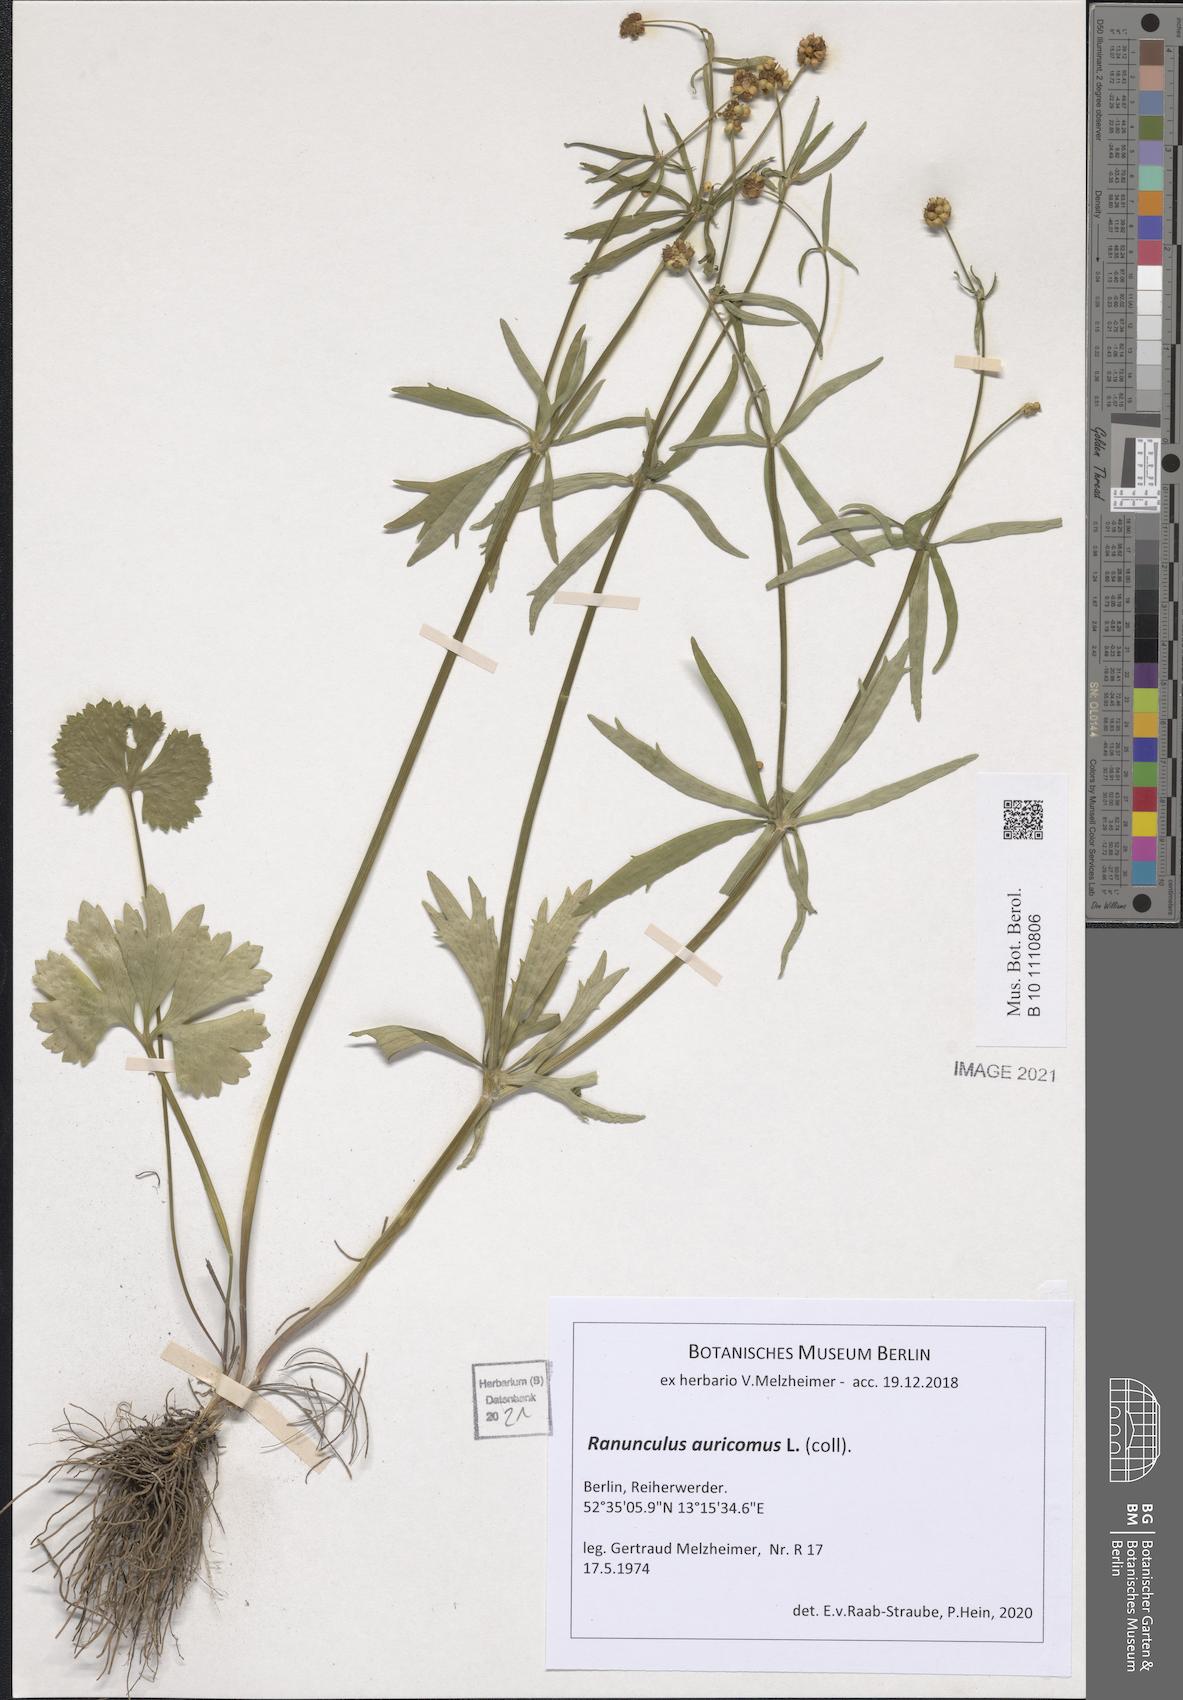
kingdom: Plantae
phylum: Tracheophyta
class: Magnoliopsida
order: Ranunculales
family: Ranunculaceae
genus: Ranunculus
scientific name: Ranunculus auricomus
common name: Goldilocks buttercup
